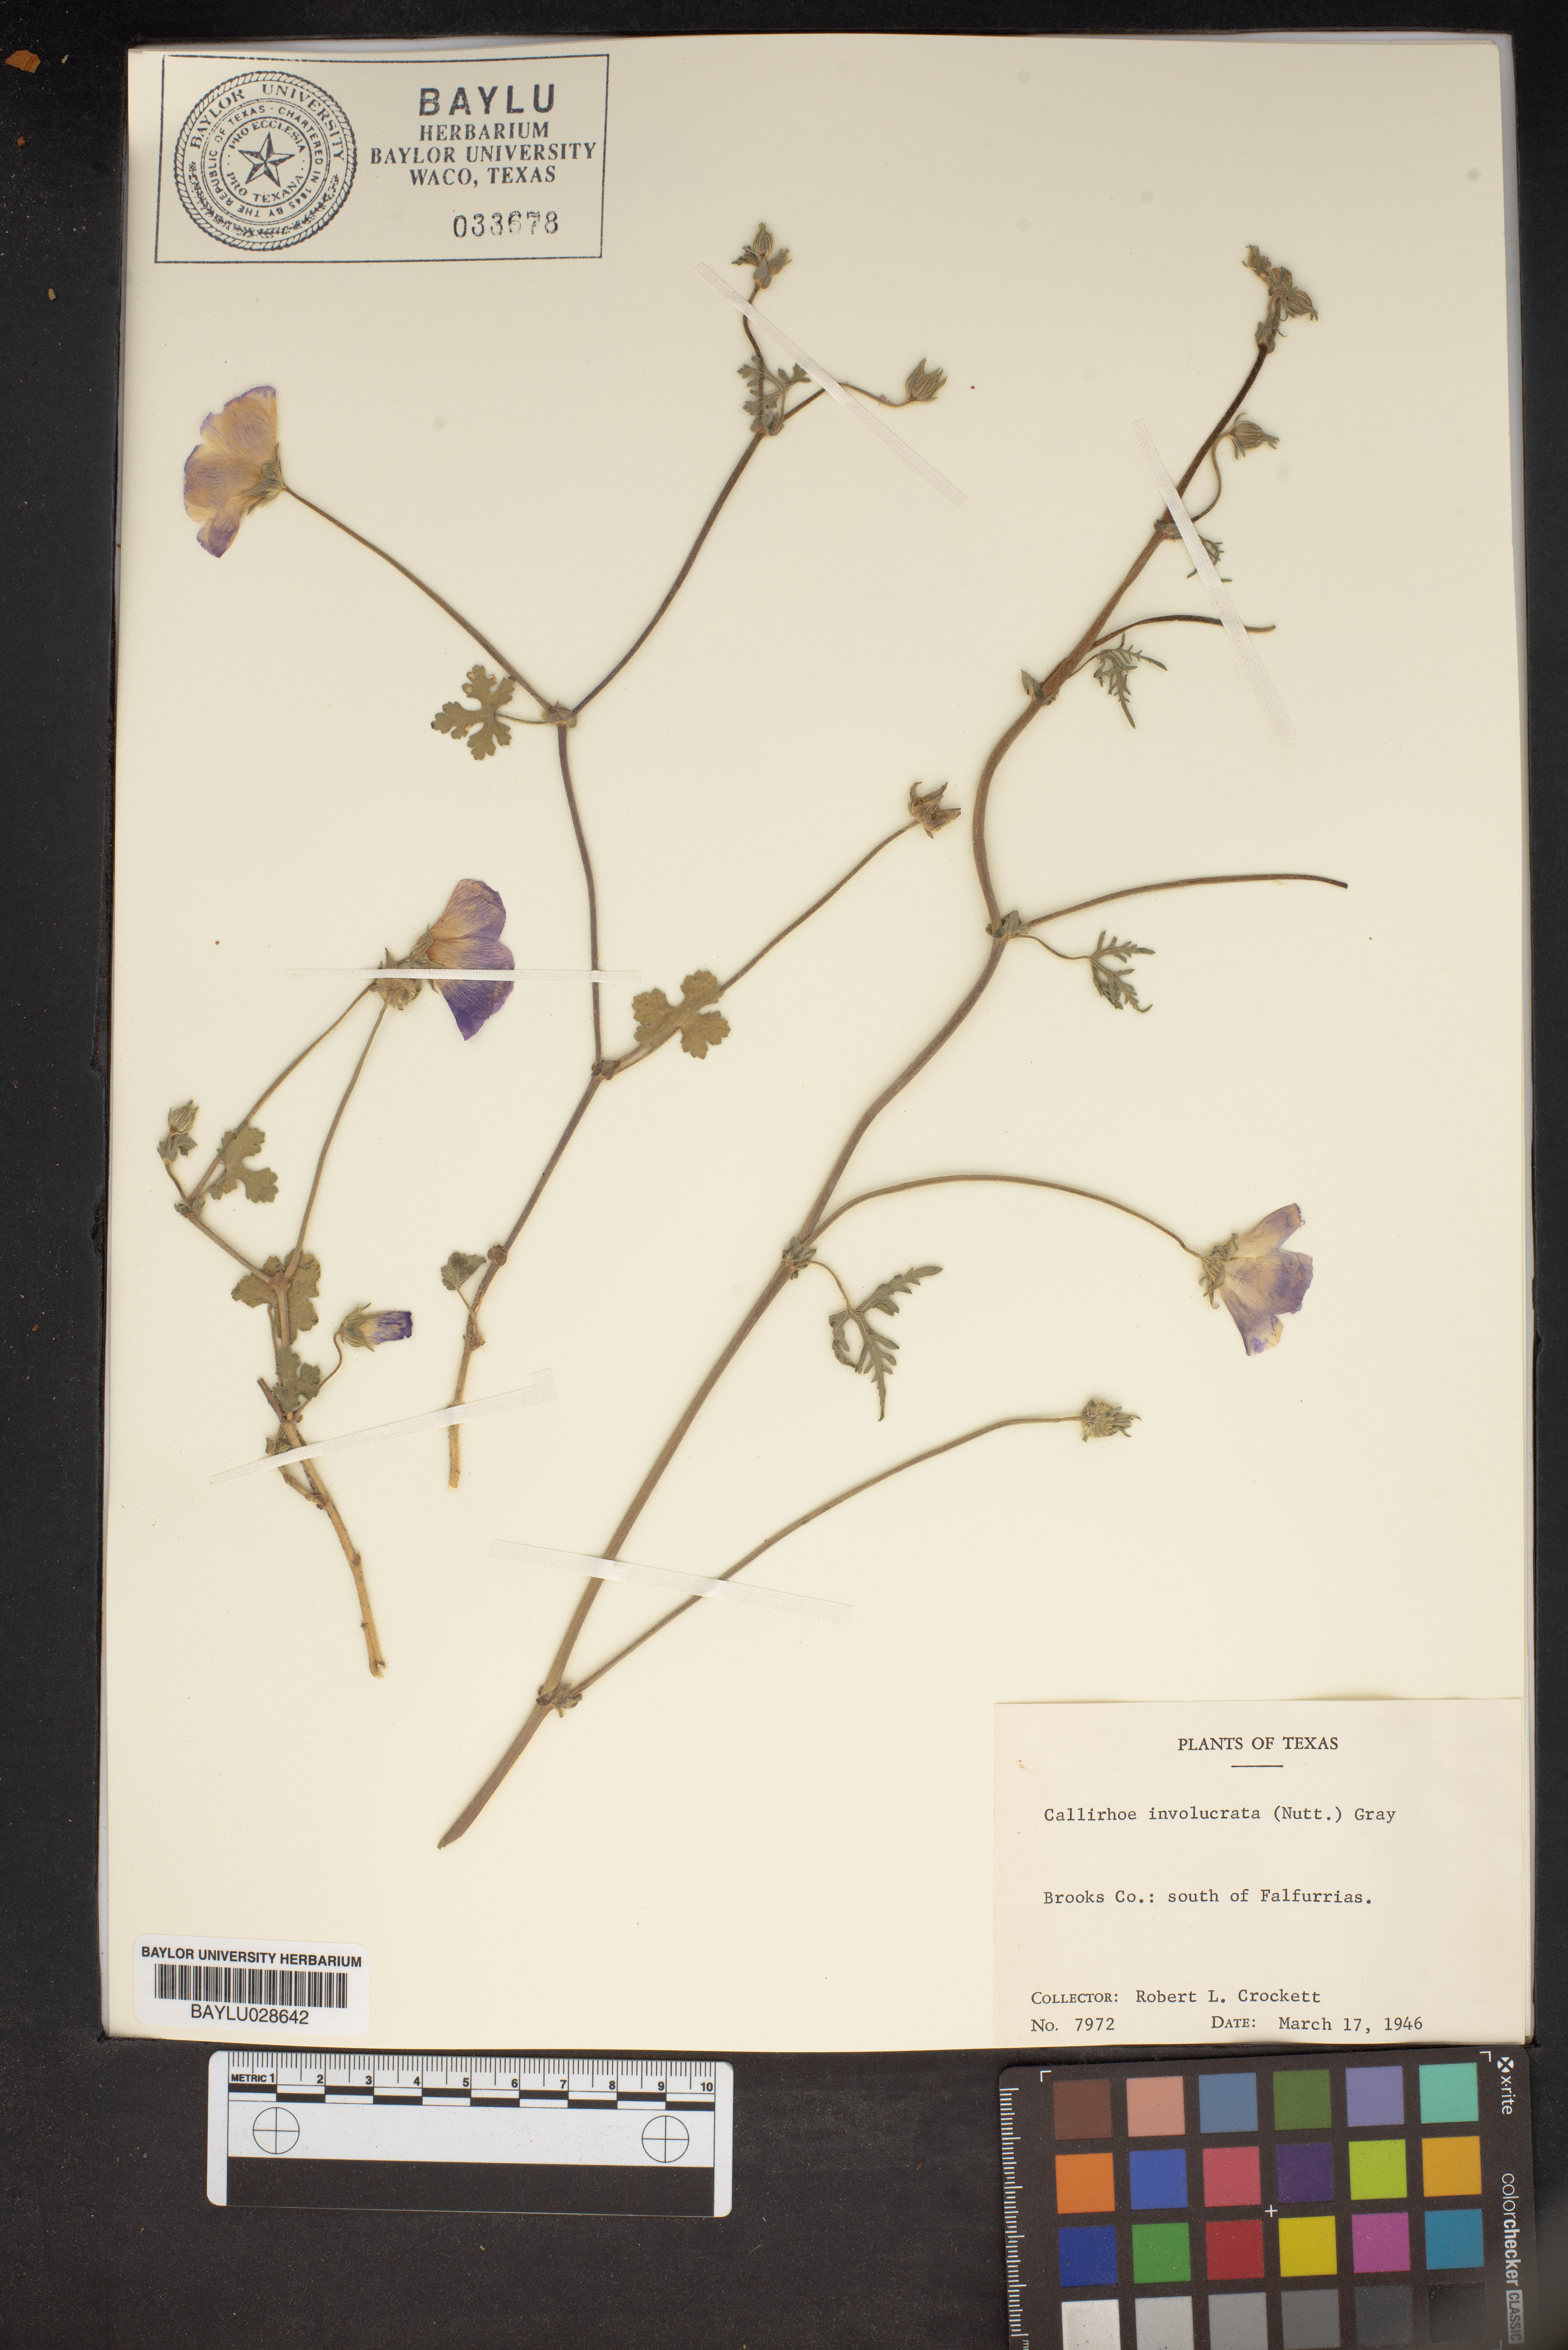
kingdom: Plantae
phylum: Tracheophyta
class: Magnoliopsida
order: Malvales
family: Malvaceae
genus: Callirhoe
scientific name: Callirhoe involucrata
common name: Purple poppy-mallow
